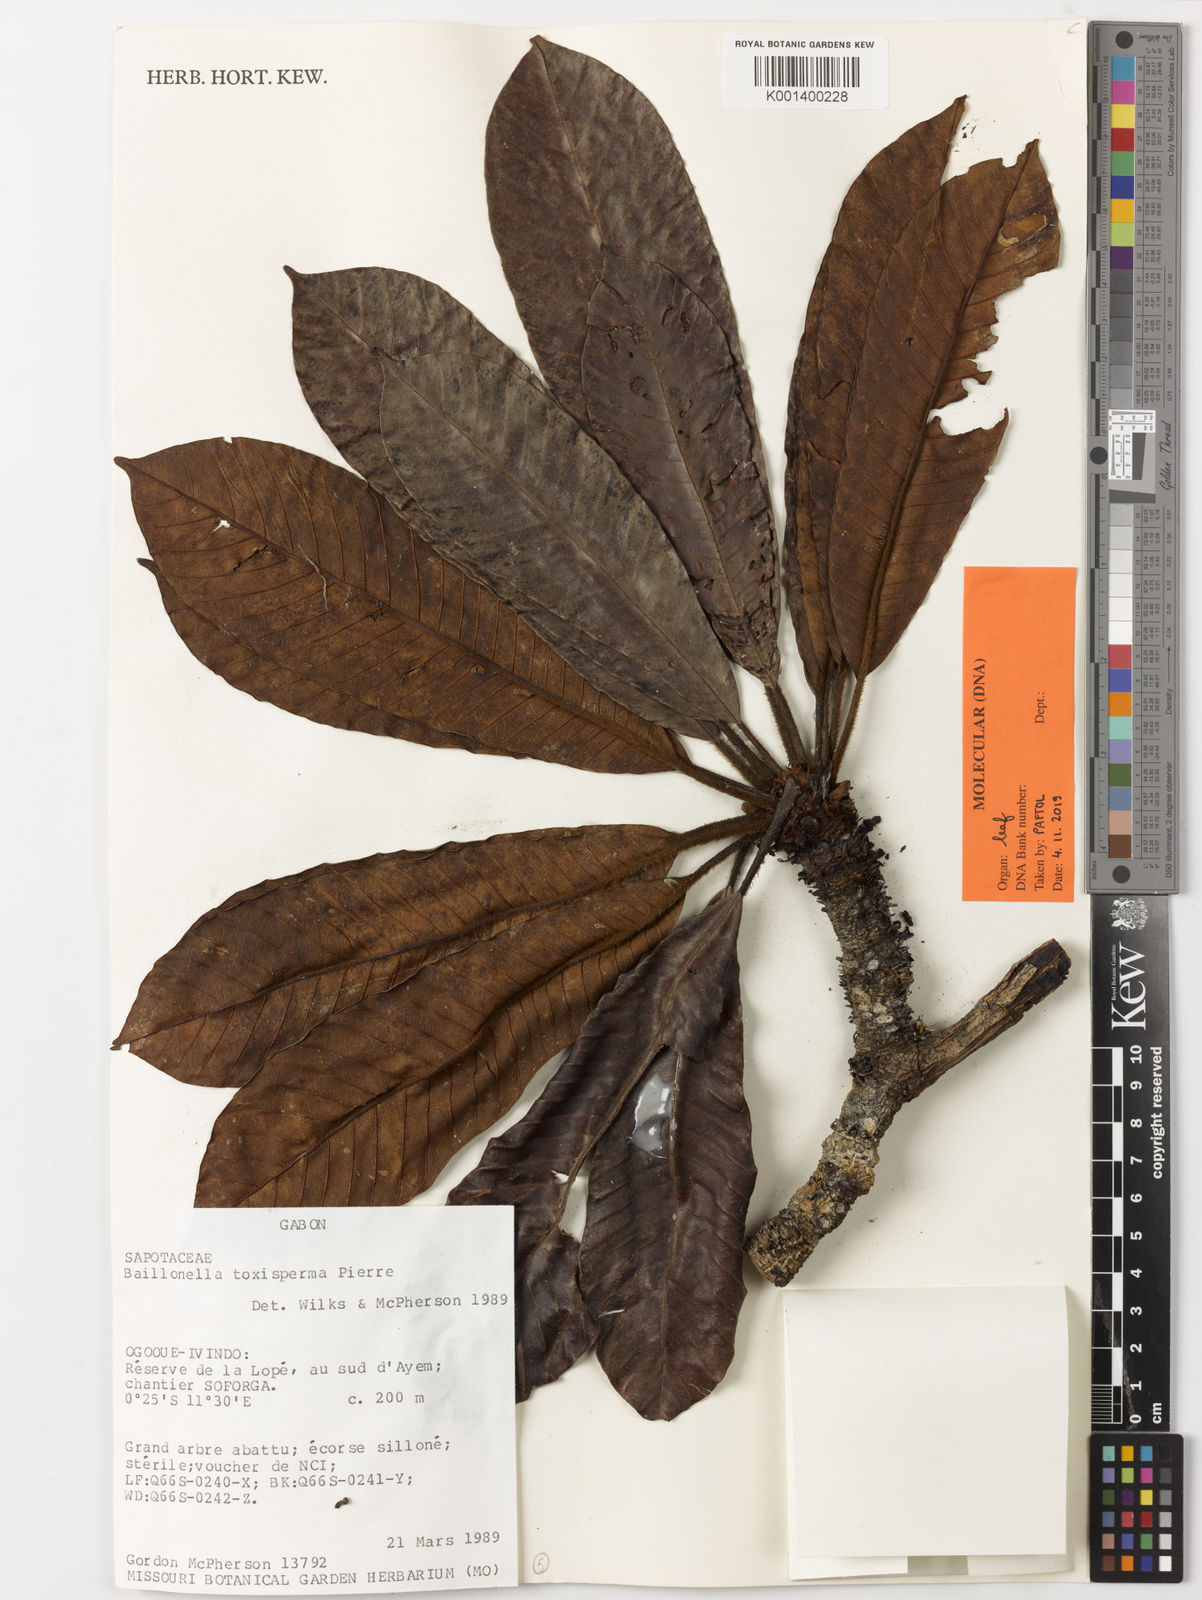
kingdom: Plantae
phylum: Tracheophyta
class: Magnoliopsida
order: Ericales
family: Sapotaceae
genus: Baillonella
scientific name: Baillonella toxisperma
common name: African pearwood
